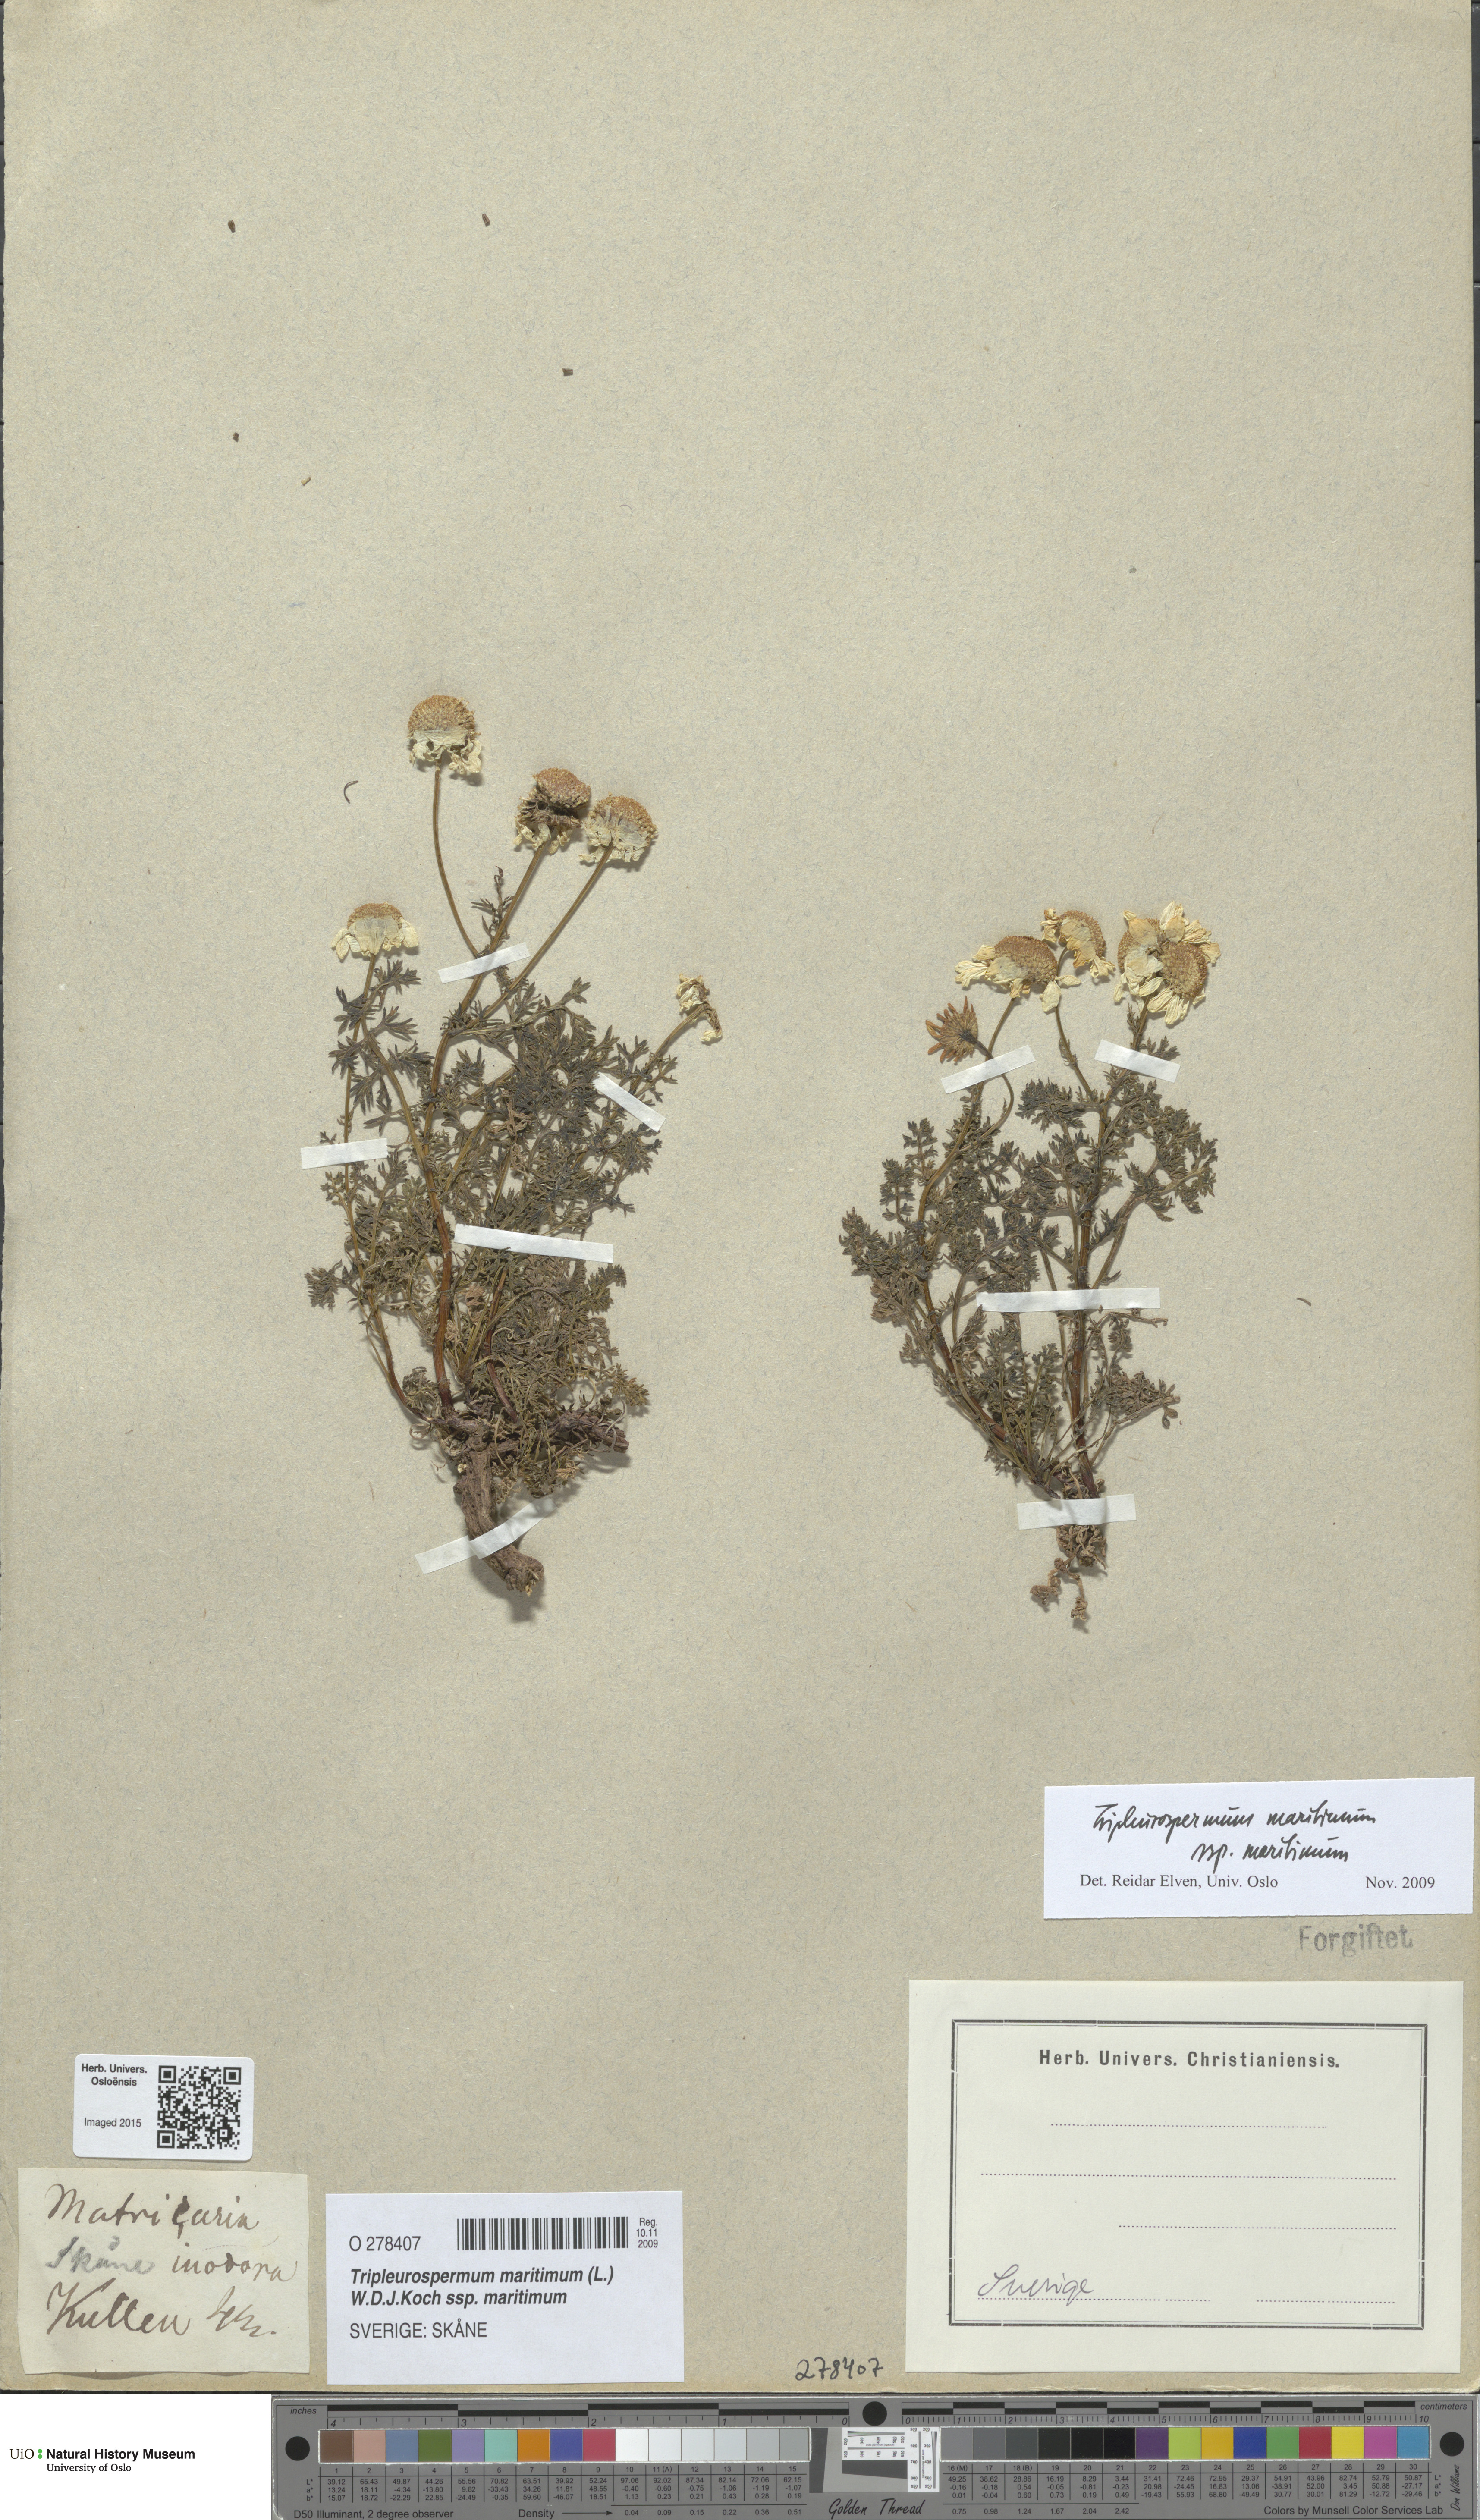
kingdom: Plantae
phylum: Tracheophyta
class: Magnoliopsida
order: Asterales
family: Asteraceae
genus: Tripleurospermum
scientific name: Tripleurospermum maritimum
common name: Sea mayweed
